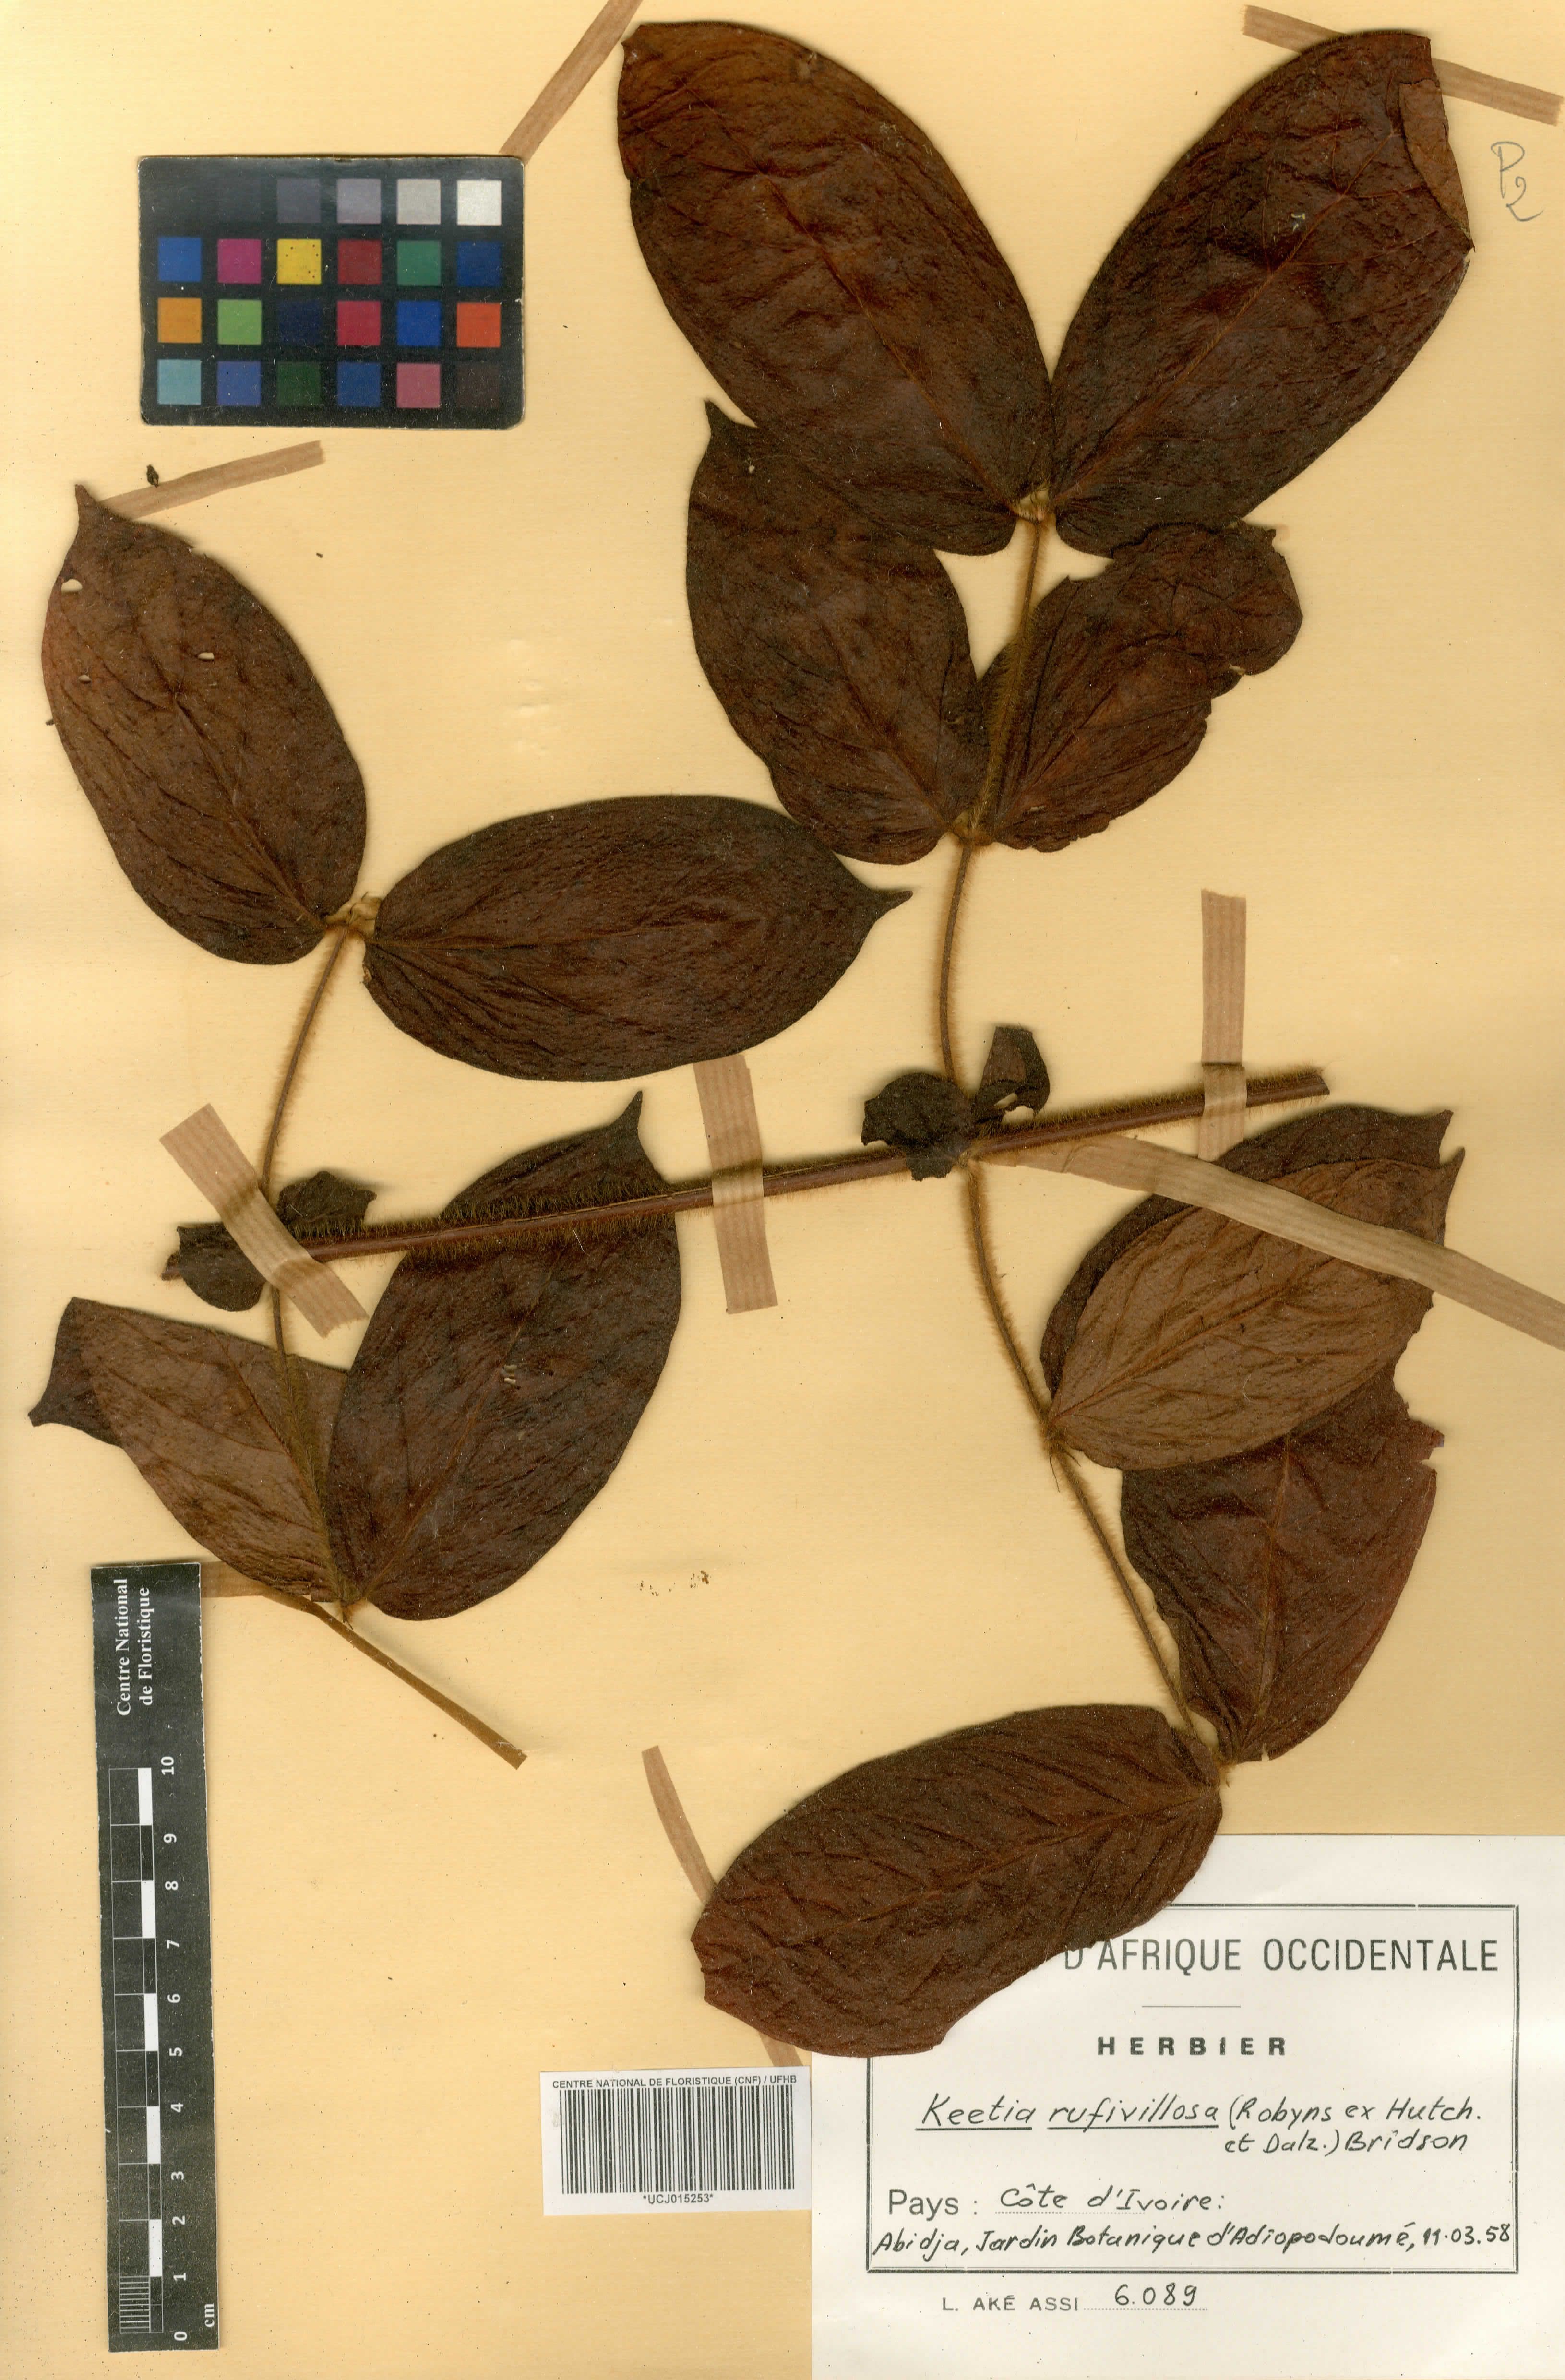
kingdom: Plantae
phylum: Tracheophyta
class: Magnoliopsida
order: Gentianales
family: Rubiaceae
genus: Keetia
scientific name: Keetia rufivillosa
